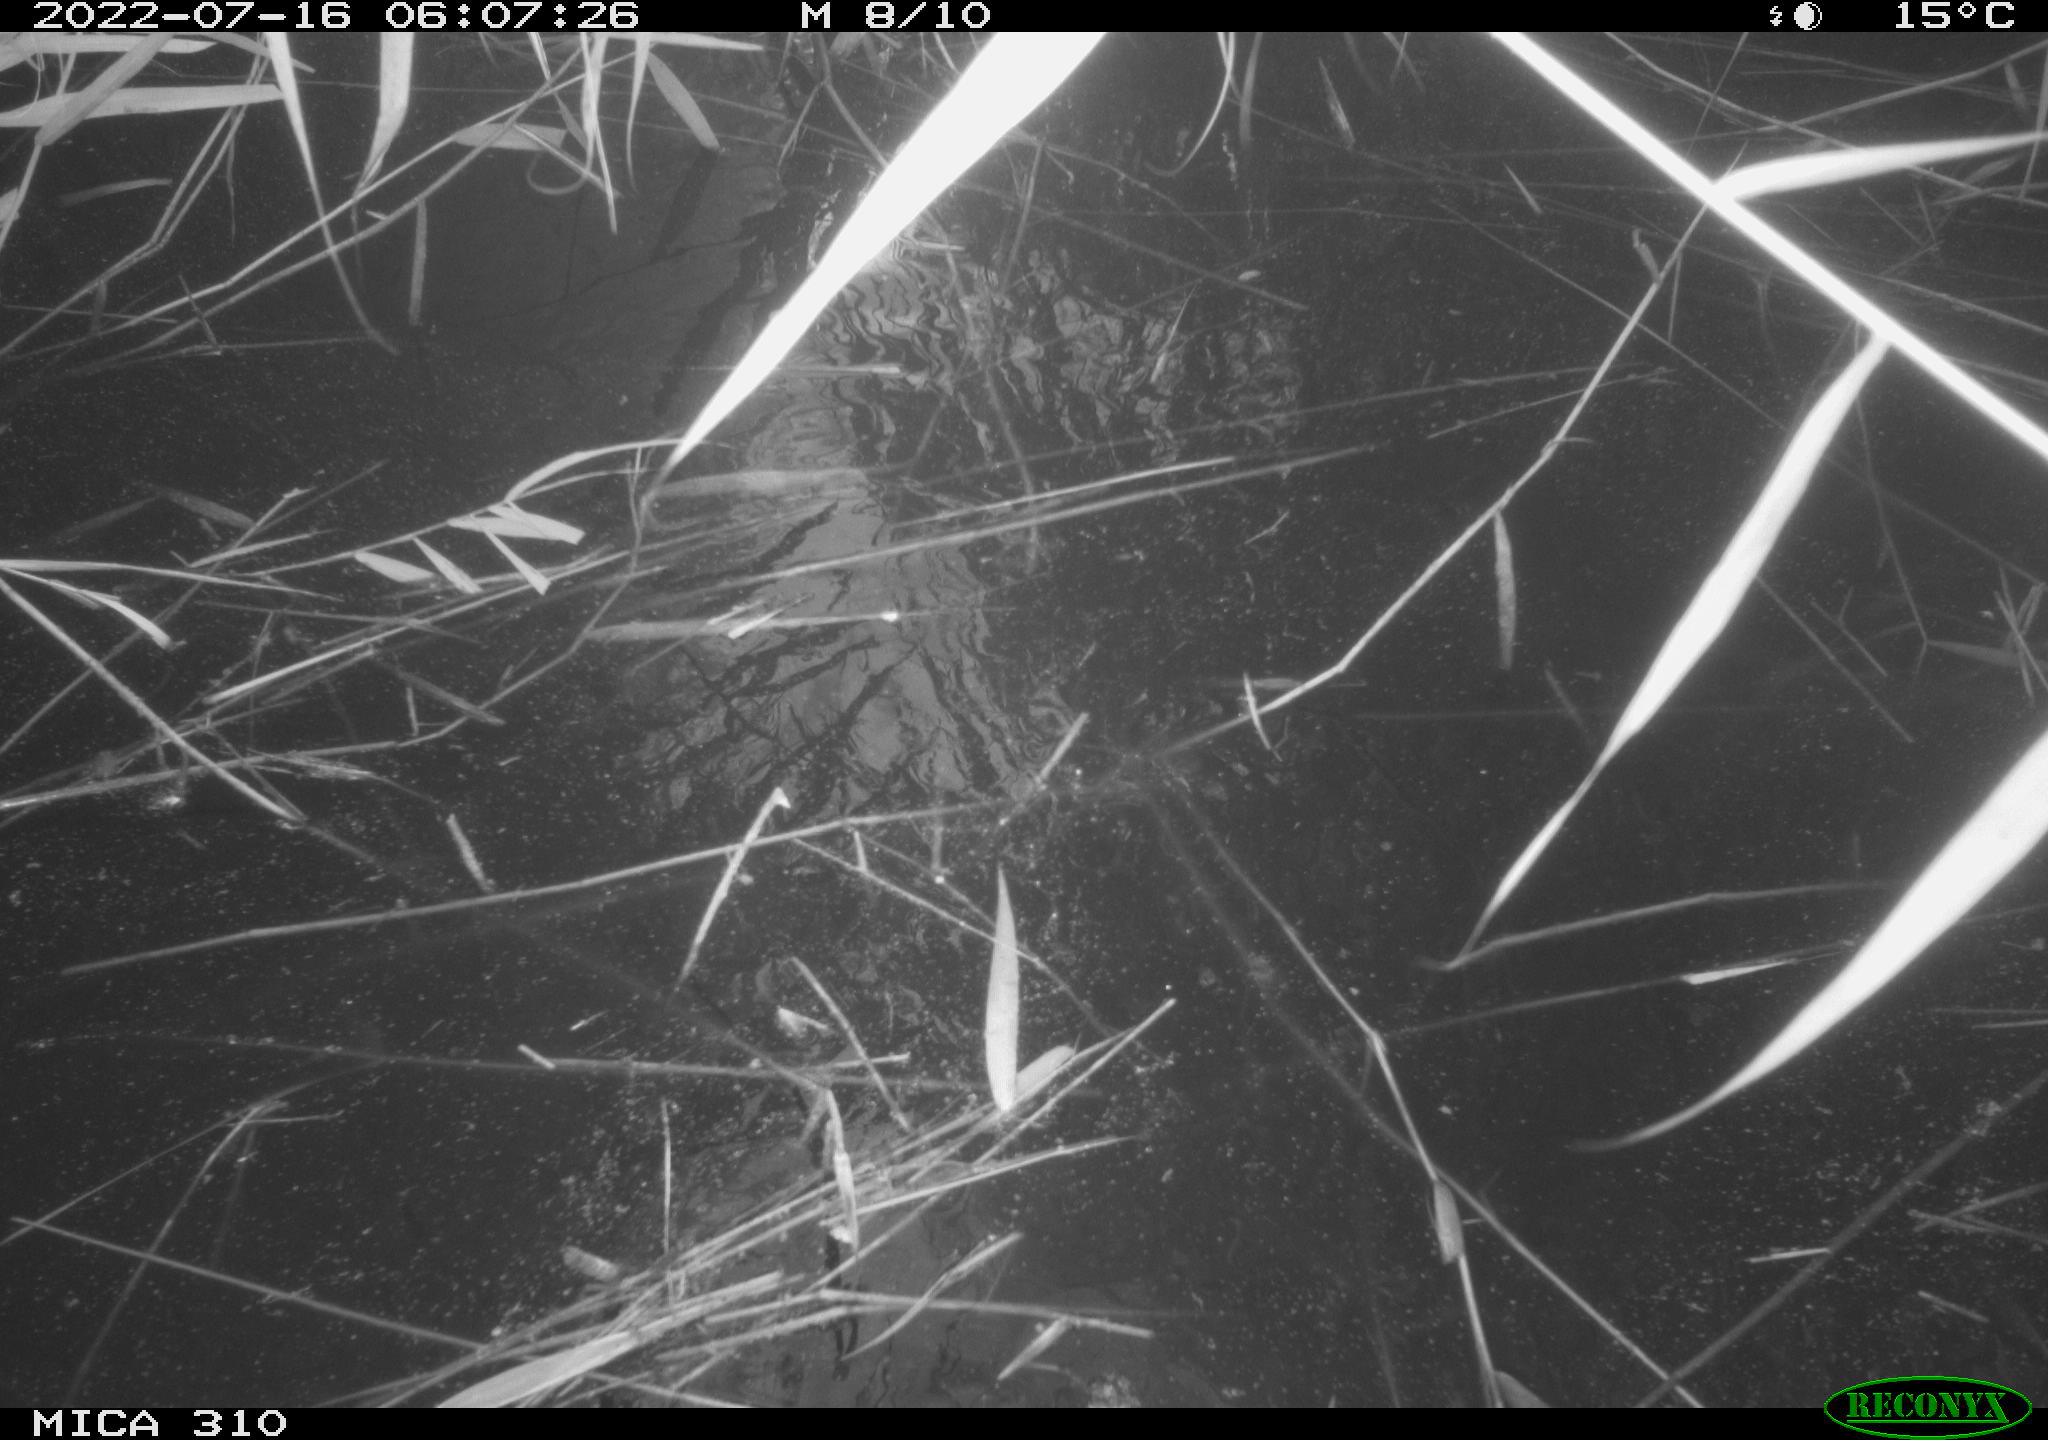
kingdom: Animalia
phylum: Chordata
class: Aves
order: Anseriformes
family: Anatidae
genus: Anas
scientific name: Anas platyrhynchos
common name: Mallard
